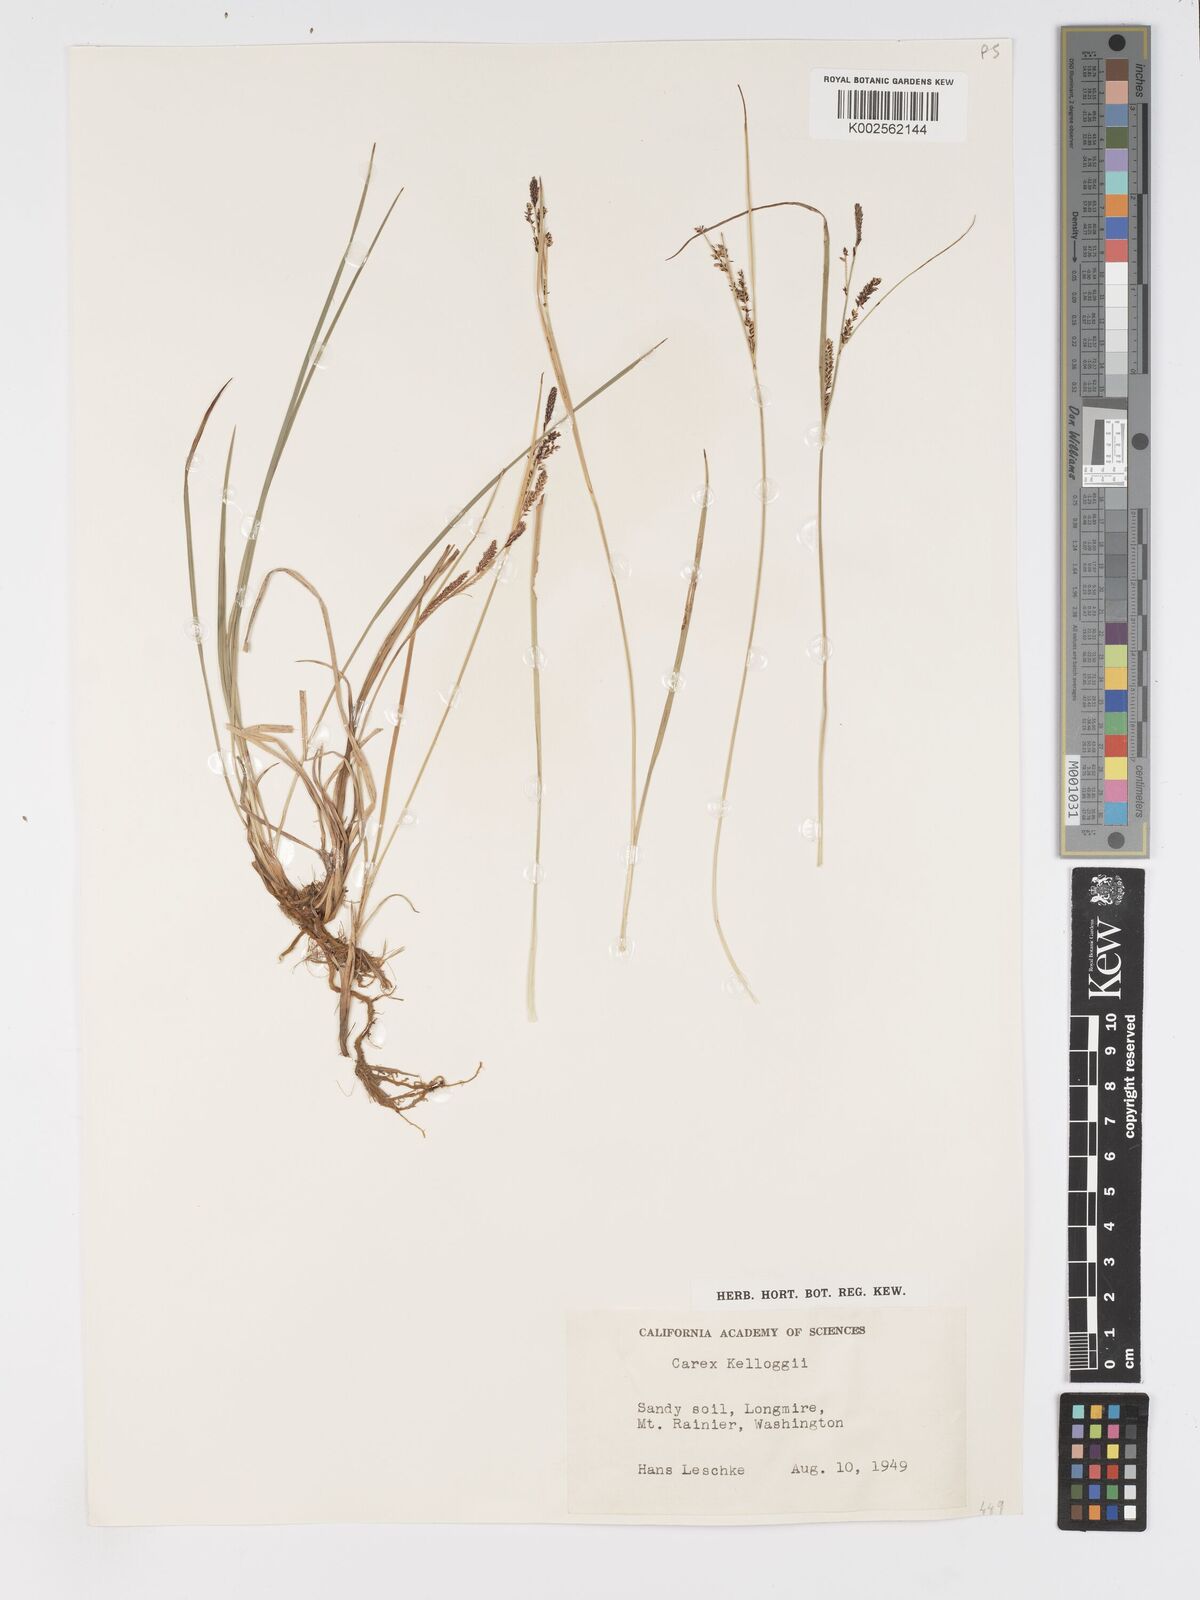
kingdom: Plantae
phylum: Tracheophyta
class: Liliopsida
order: Poales
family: Cyperaceae
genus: Carex
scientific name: Carex kelloggii
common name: Kellogg's sedge
